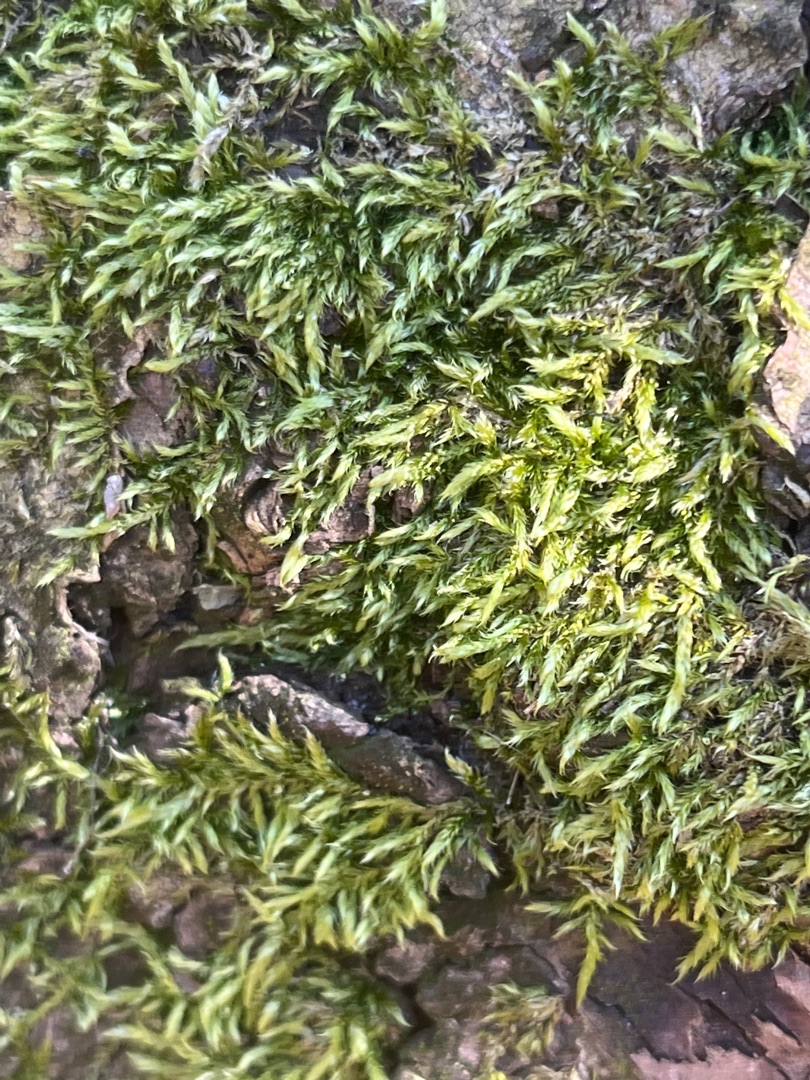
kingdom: Plantae
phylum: Bryophyta
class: Bryopsida
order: Hypnales
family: Hypnaceae
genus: Hypnum
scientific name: Hypnum cupressiforme
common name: Almindelig cypresmos
